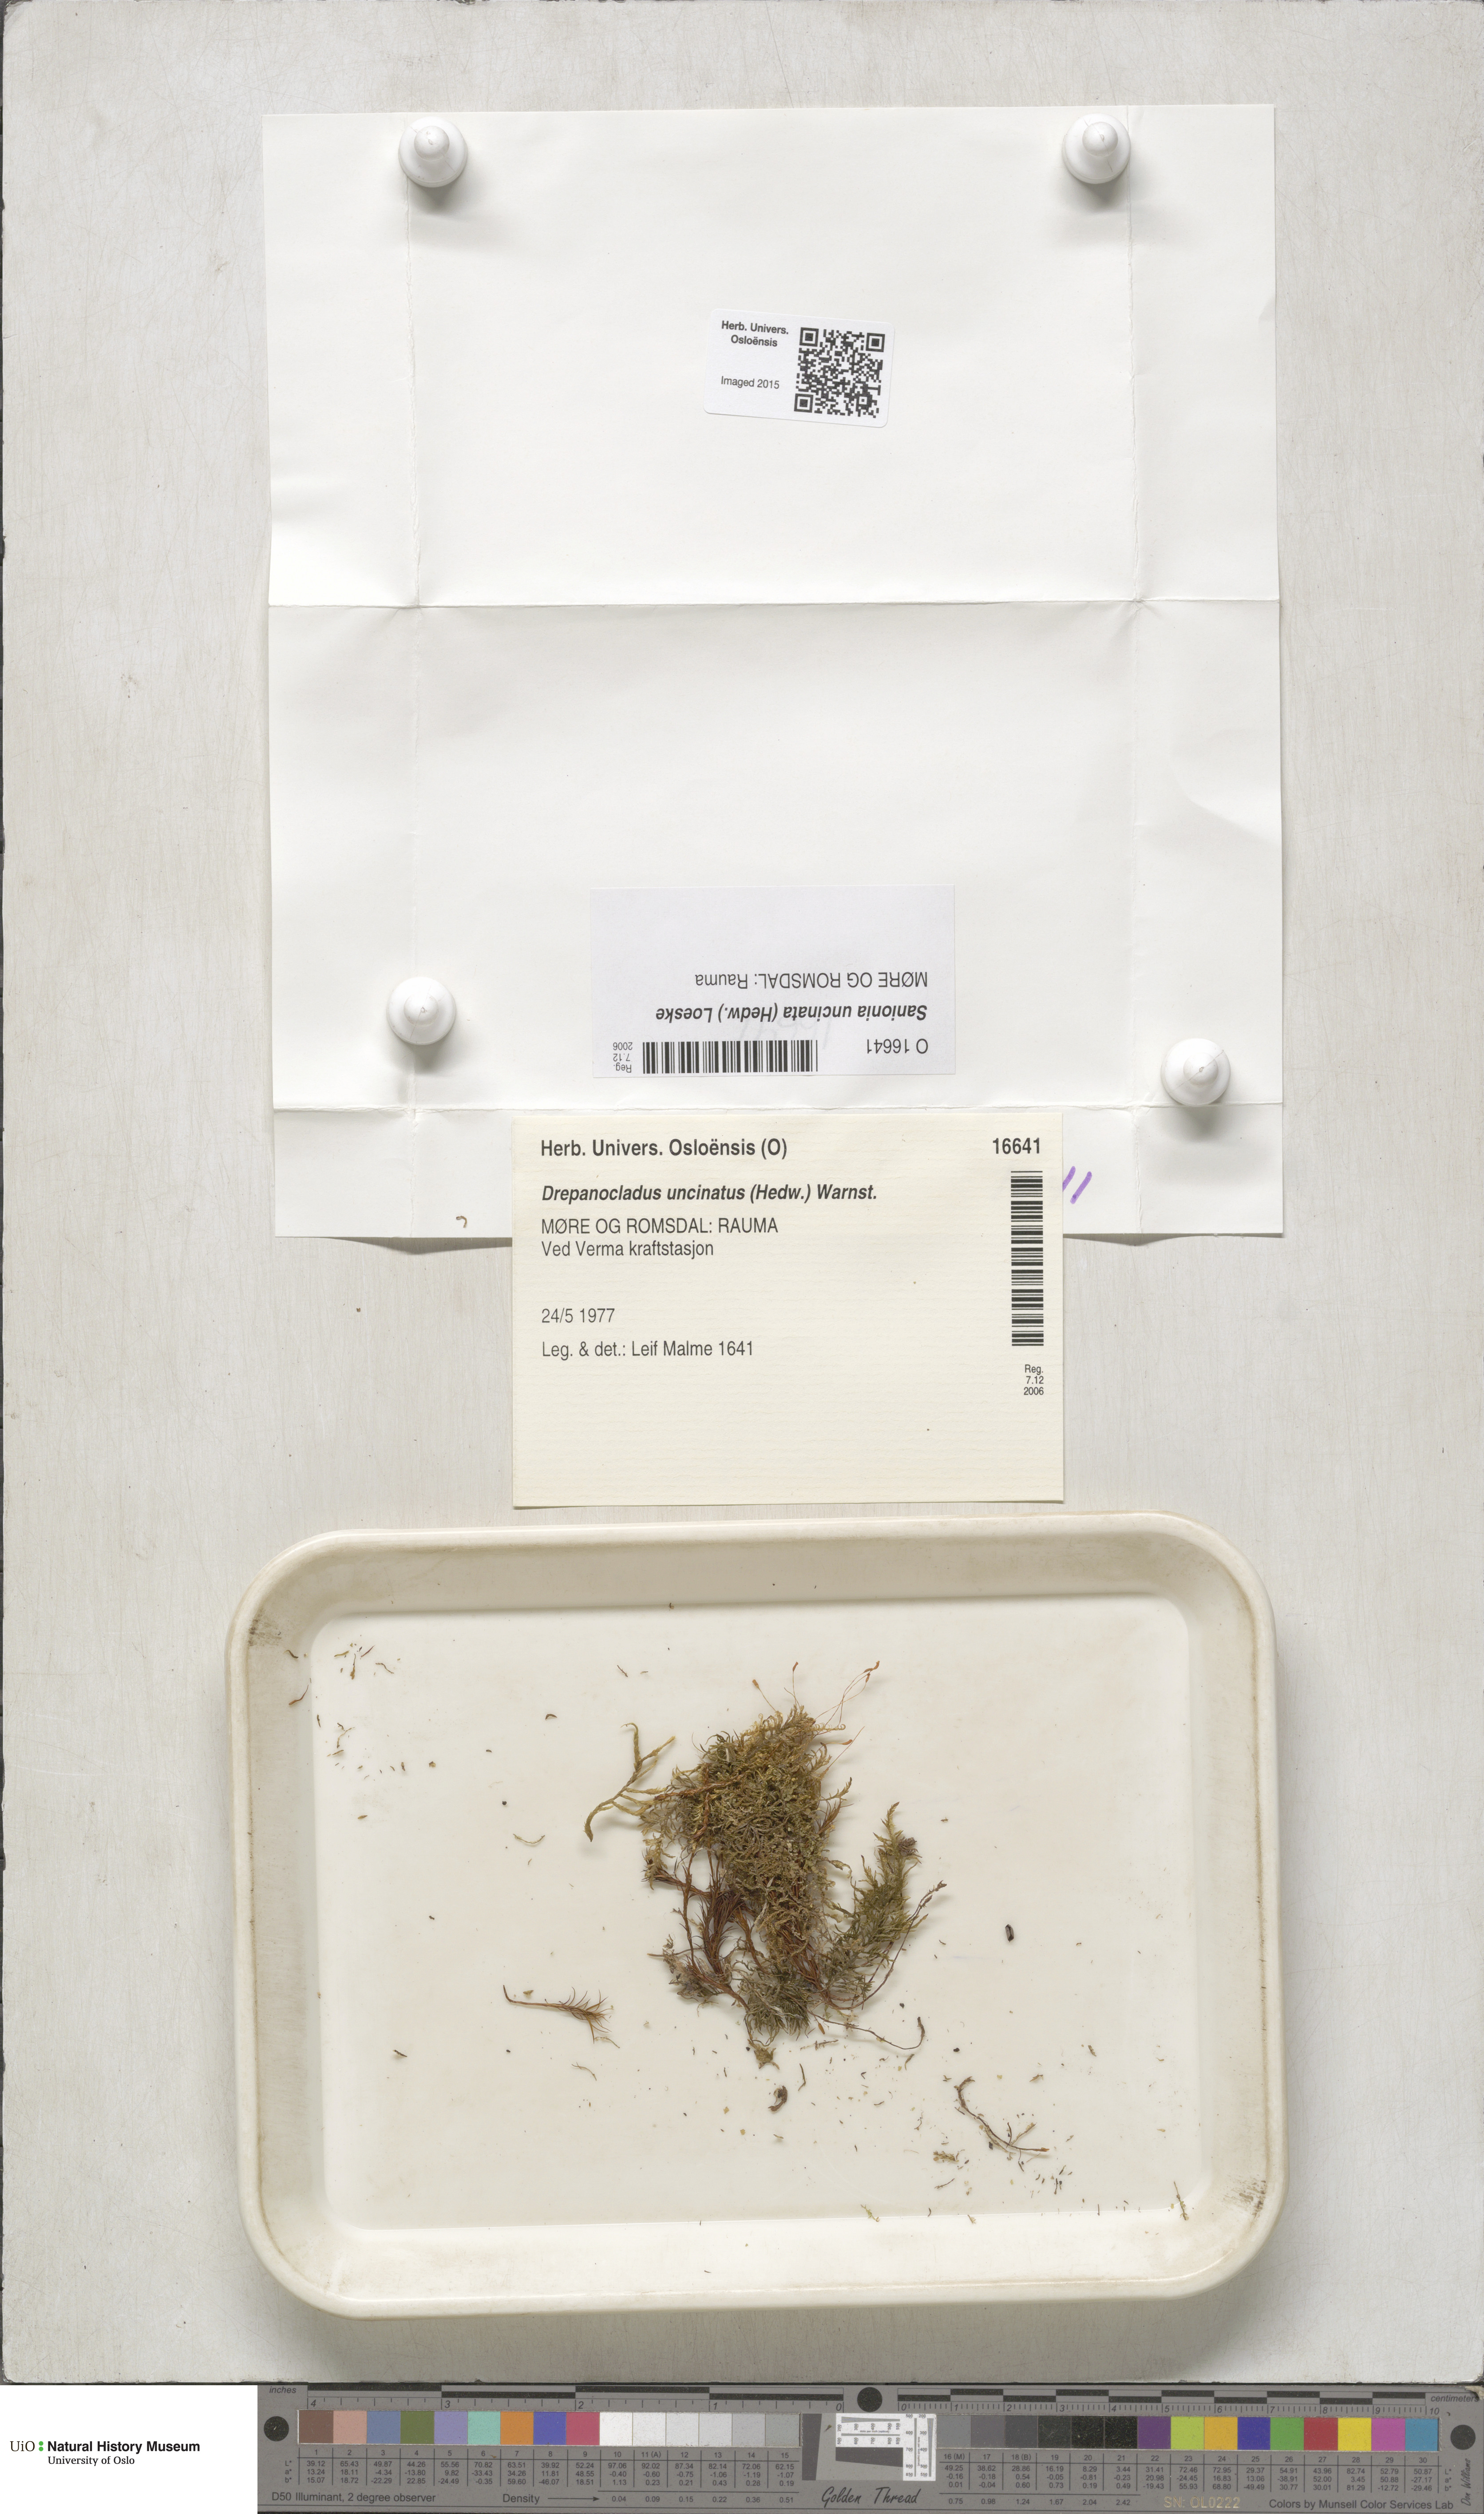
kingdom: Plantae
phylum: Bryophyta
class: Bryopsida
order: Hypnales
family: Scorpidiaceae
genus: Sanionia
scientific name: Sanionia uncinata
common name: Sickle moss
